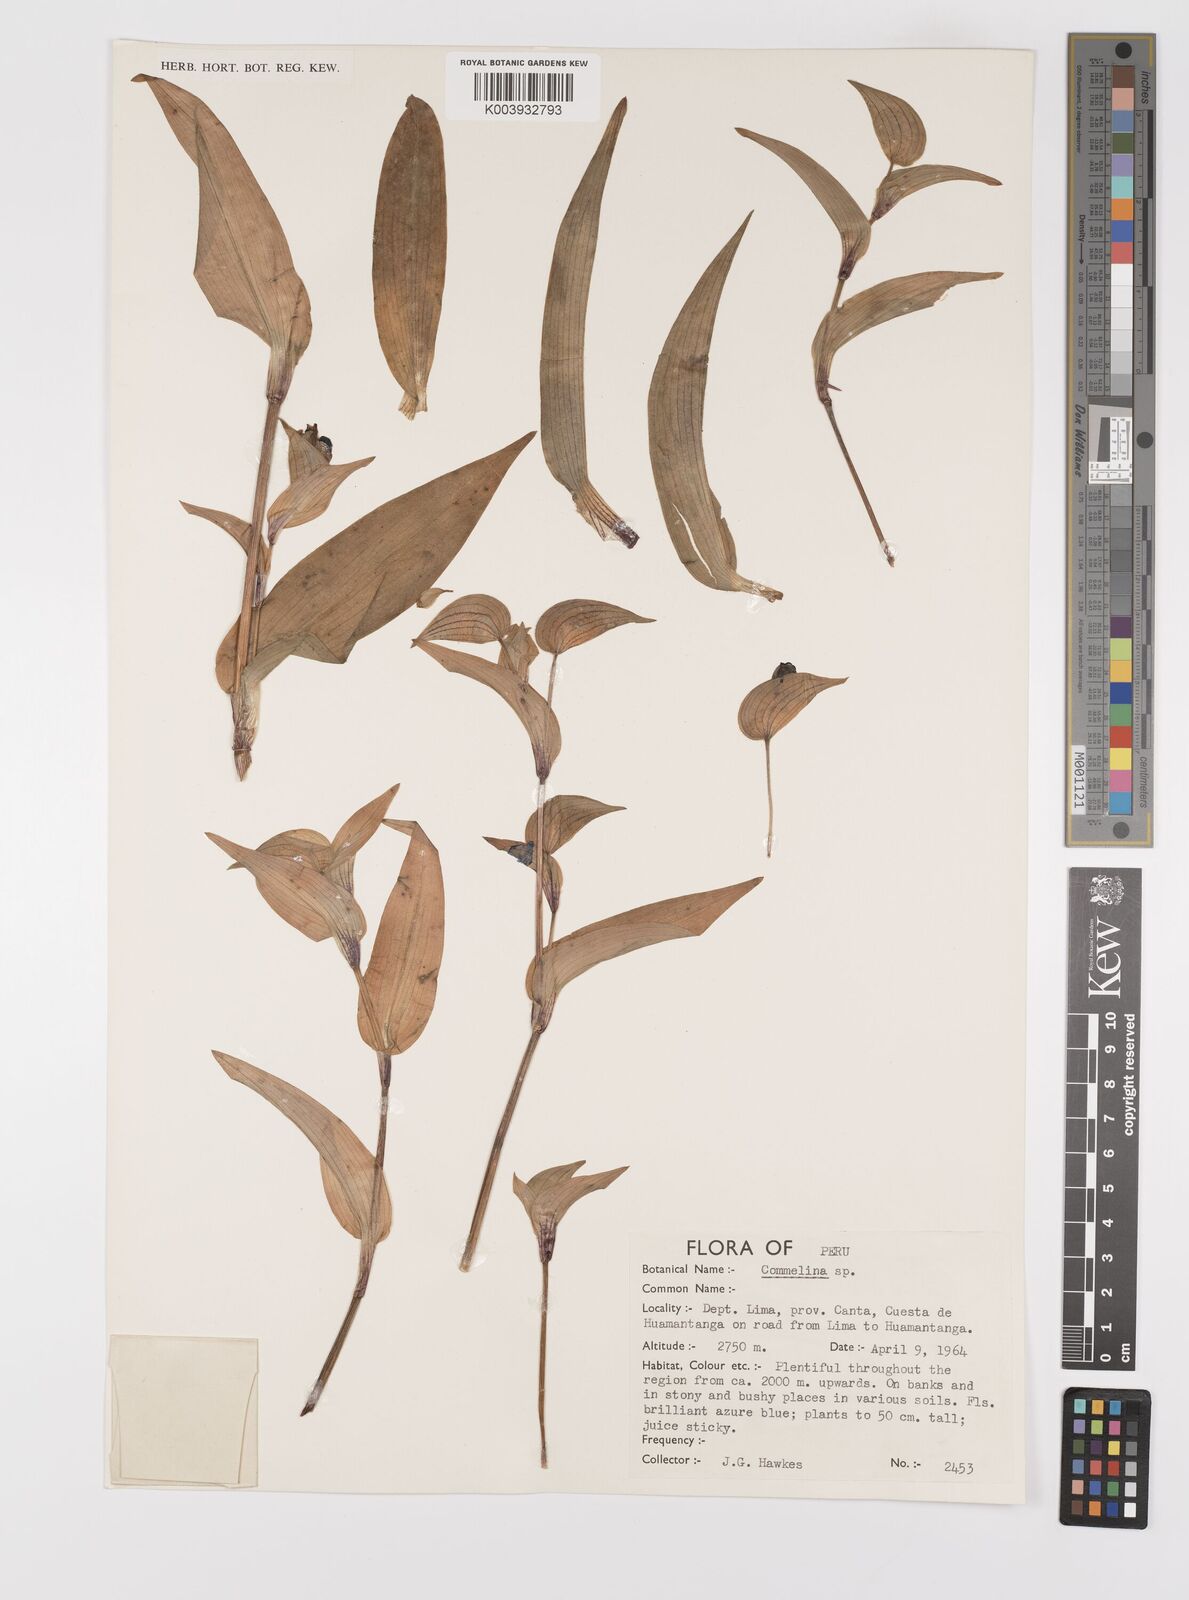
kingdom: Plantae
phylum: Tracheophyta
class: Liliopsida
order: Commelinales
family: Commelinaceae
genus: Commelina
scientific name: Commelina
